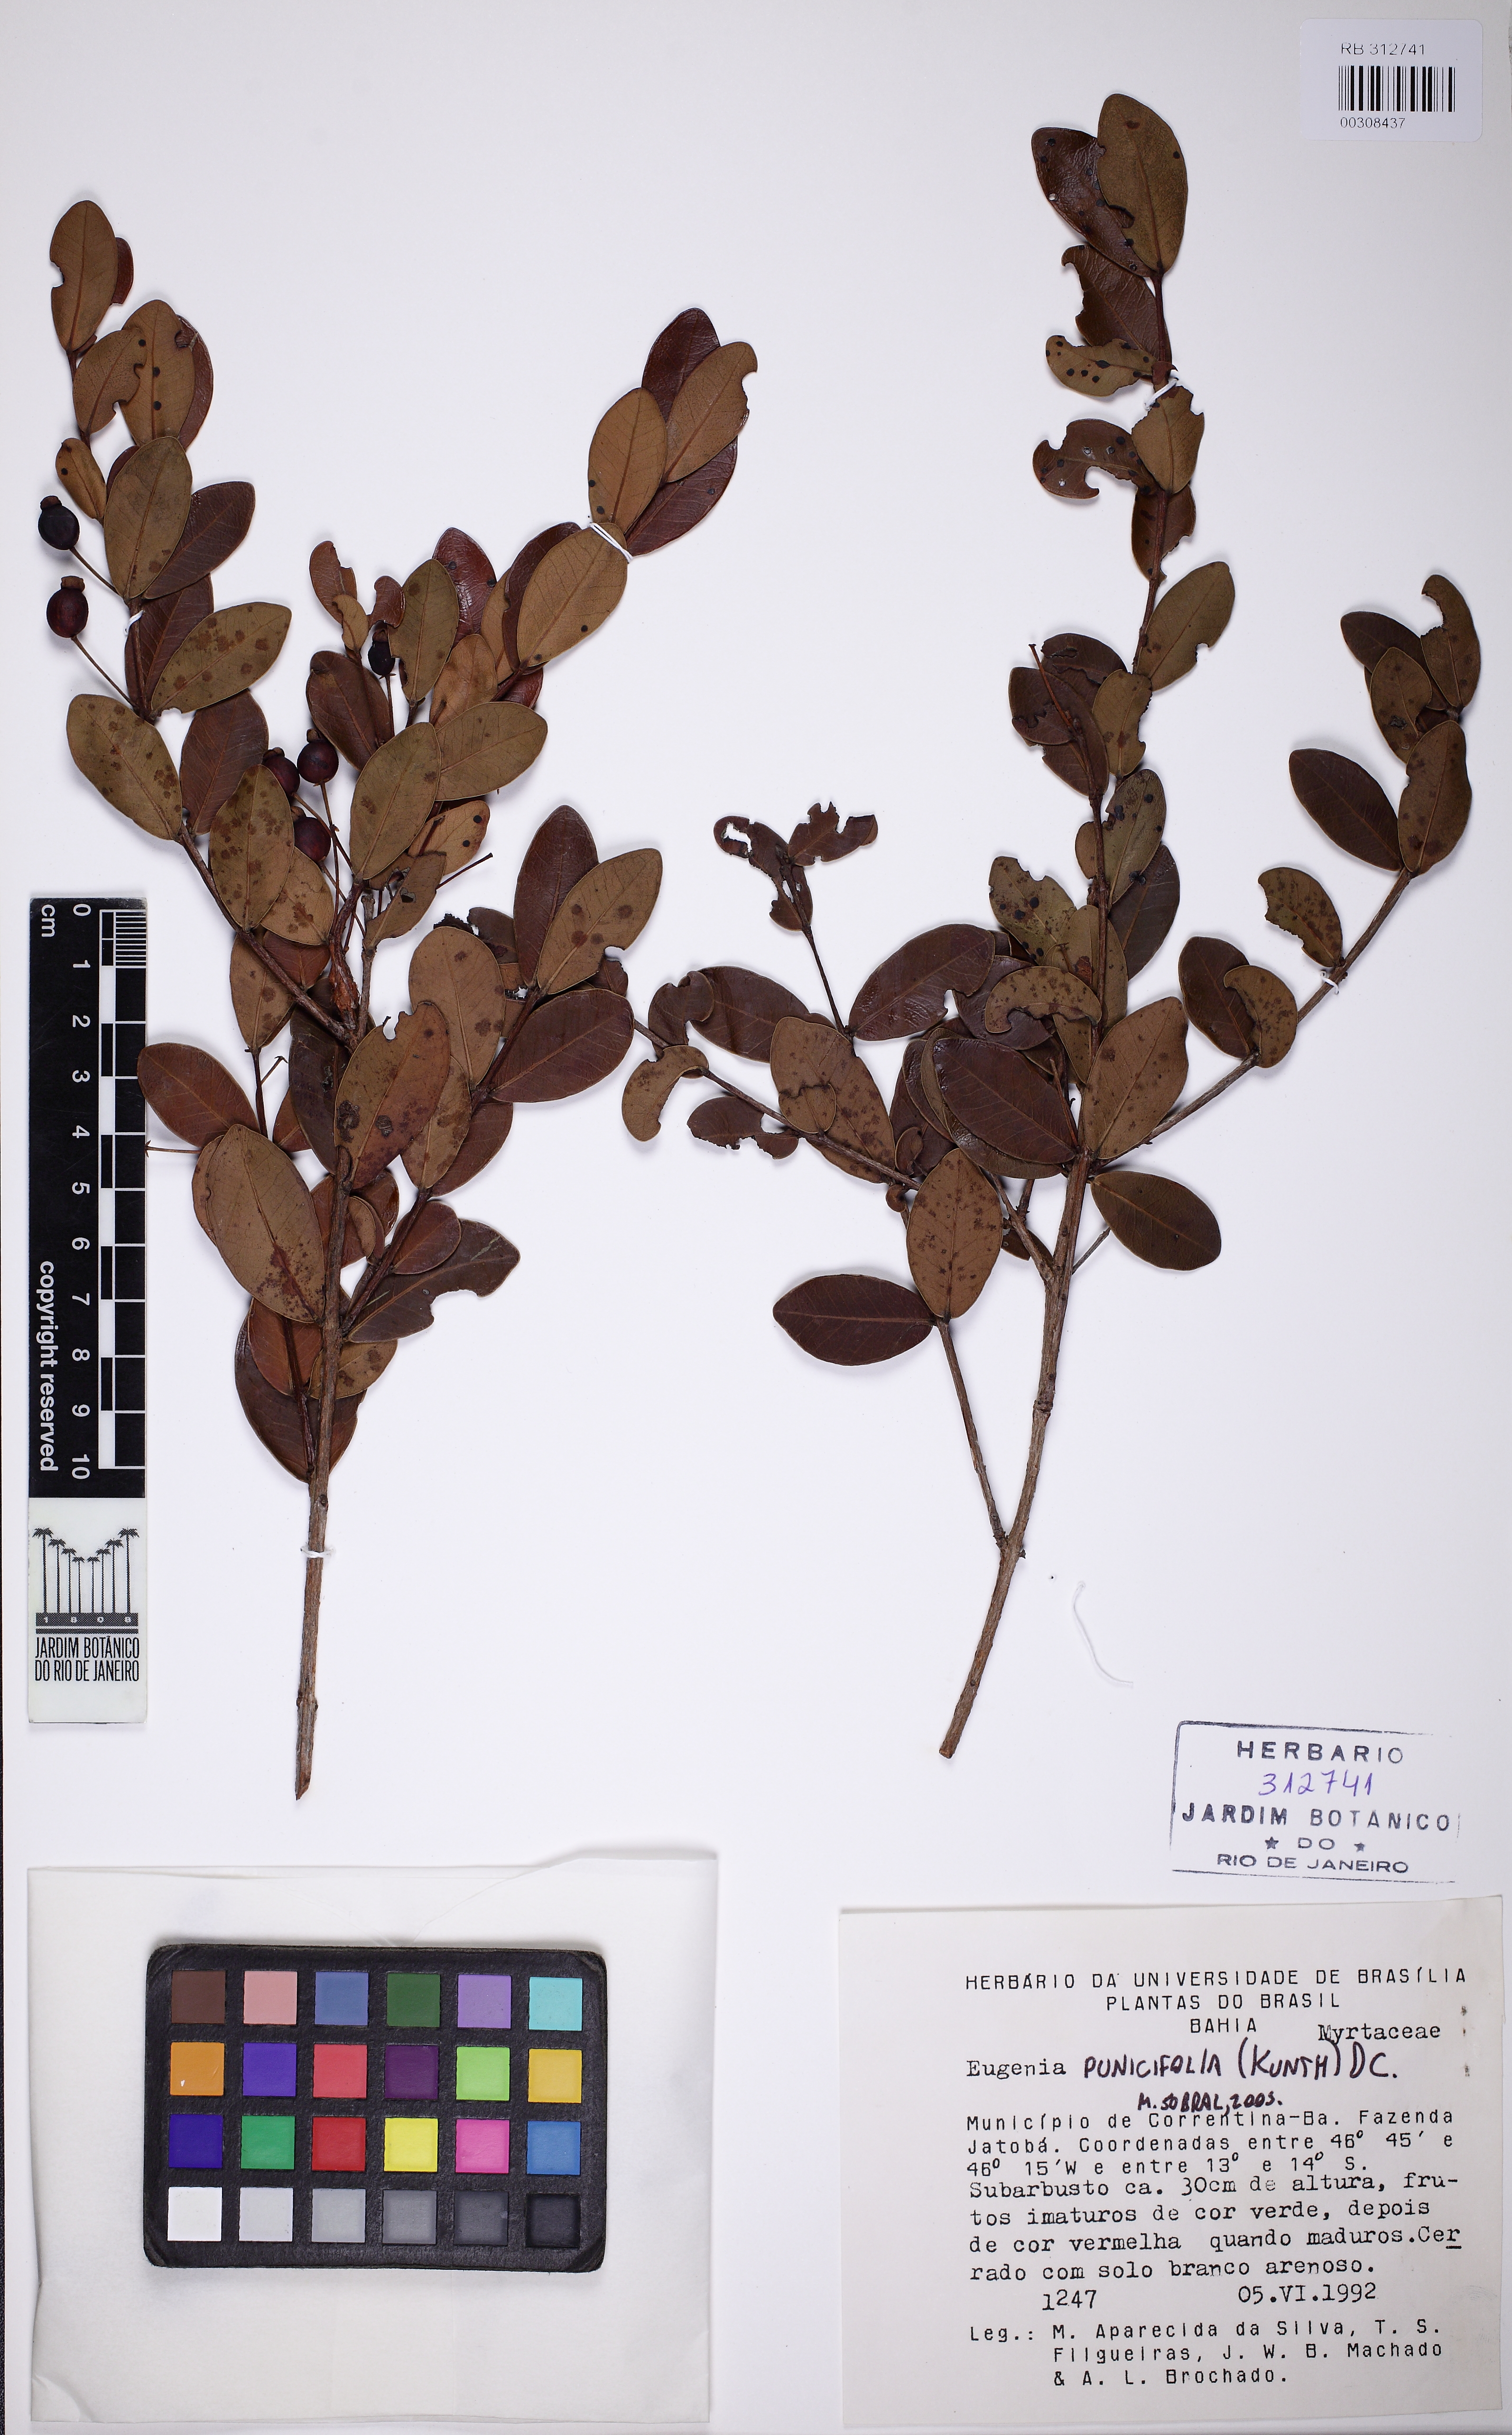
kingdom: Plantae
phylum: Tracheophyta
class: Magnoliopsida
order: Myrtales
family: Myrtaceae
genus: Eugenia
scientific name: Eugenia punicifolia
